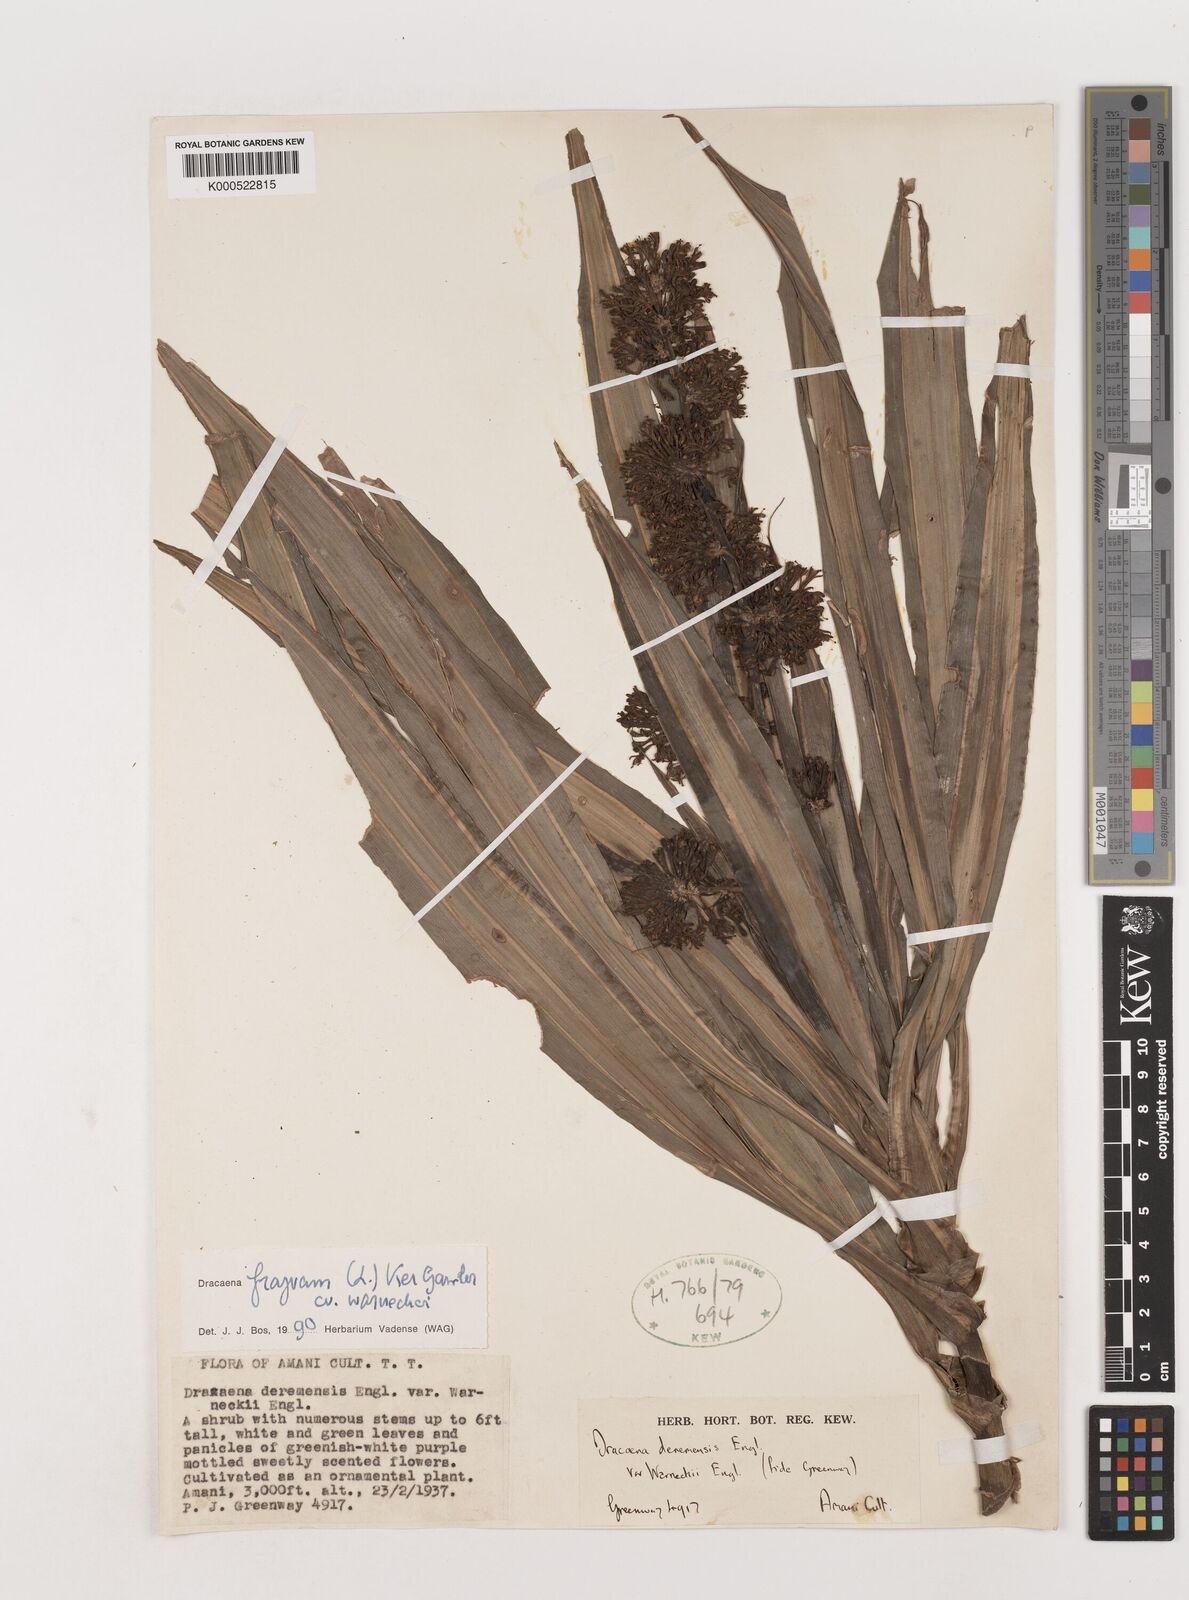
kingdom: Plantae
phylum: Tracheophyta
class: Liliopsida
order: Asparagales
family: Asparagaceae
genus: Dracaena
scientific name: Dracaena fragrans
